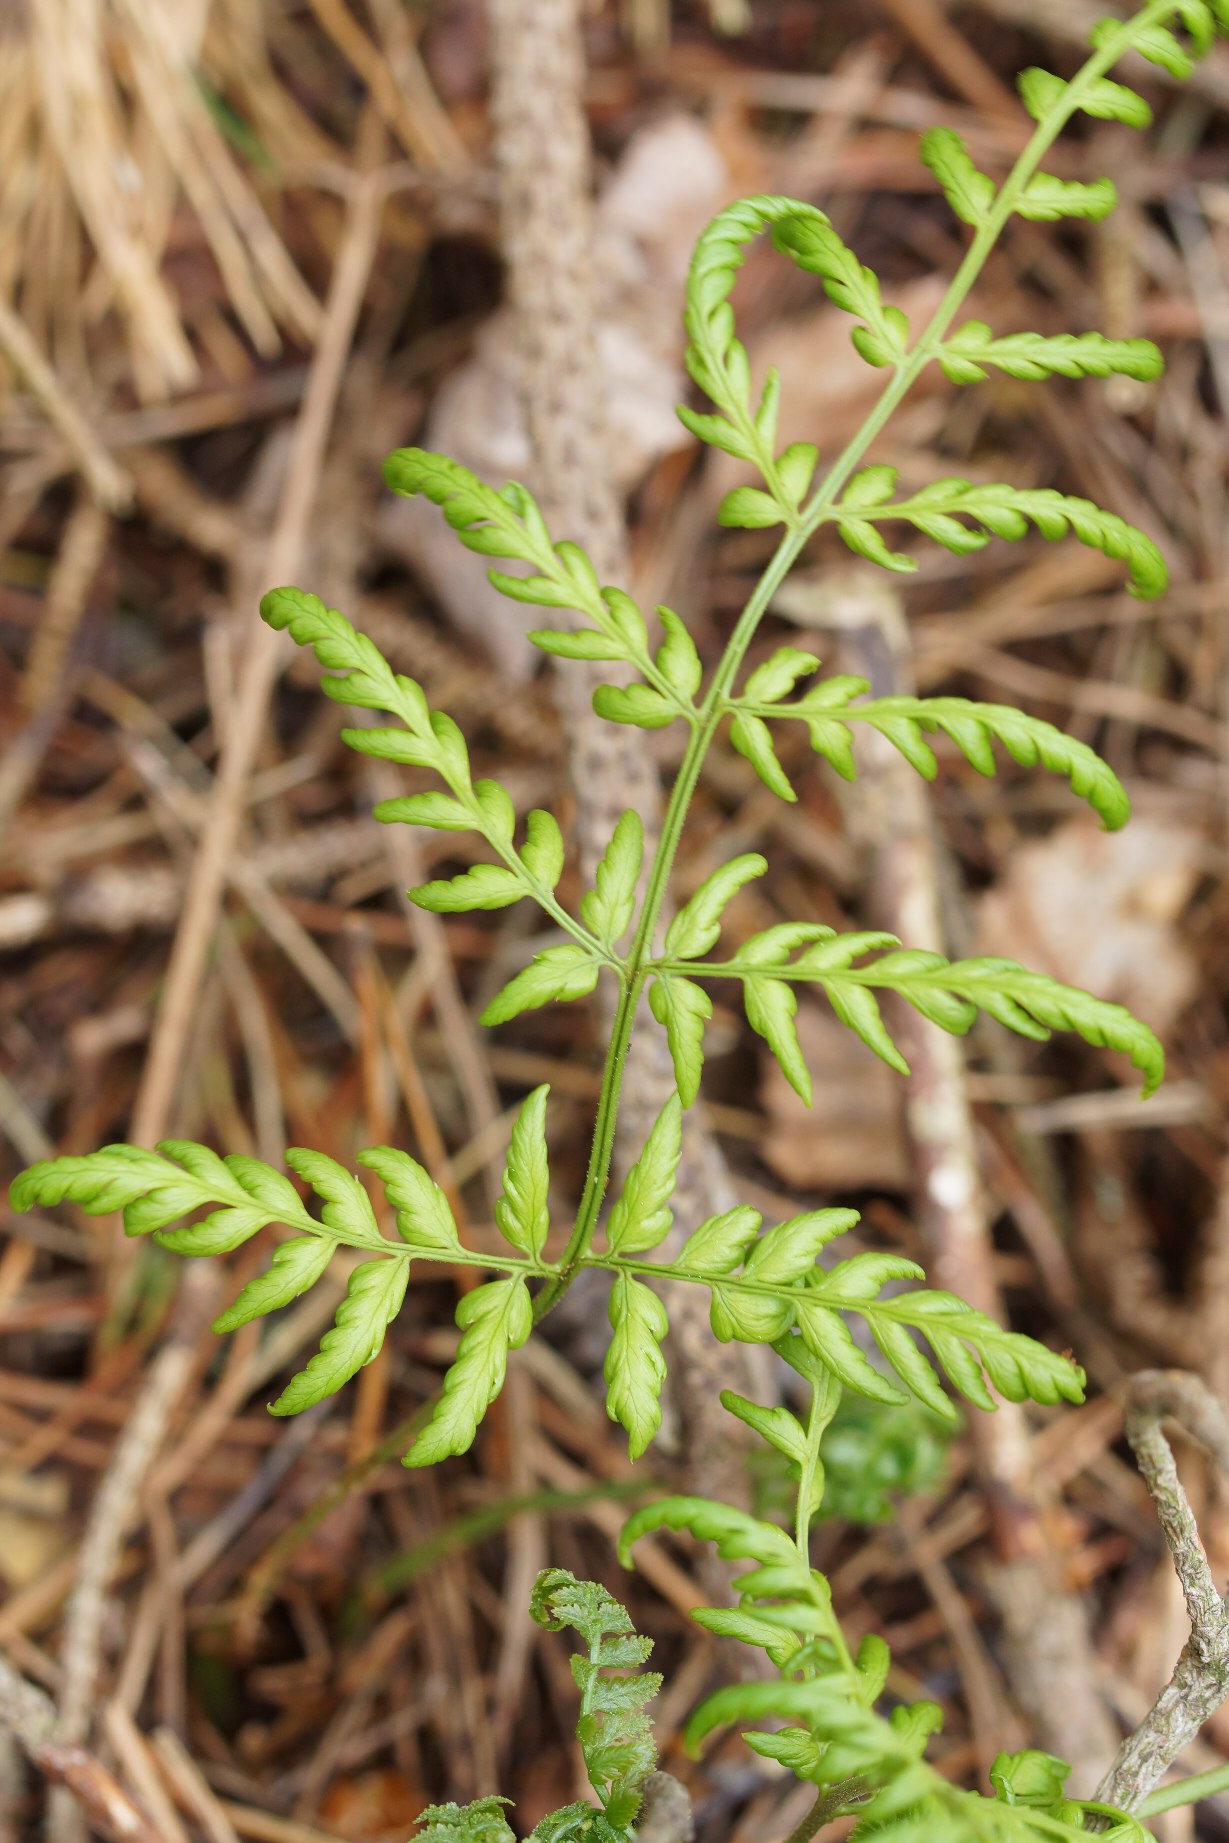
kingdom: Plantae
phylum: Tracheophyta
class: Polypodiopsida
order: Polypodiales
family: Dryopteridaceae
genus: Dryopteris
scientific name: Dryopteris
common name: Mangeløv (Dryopteris-slægten)
